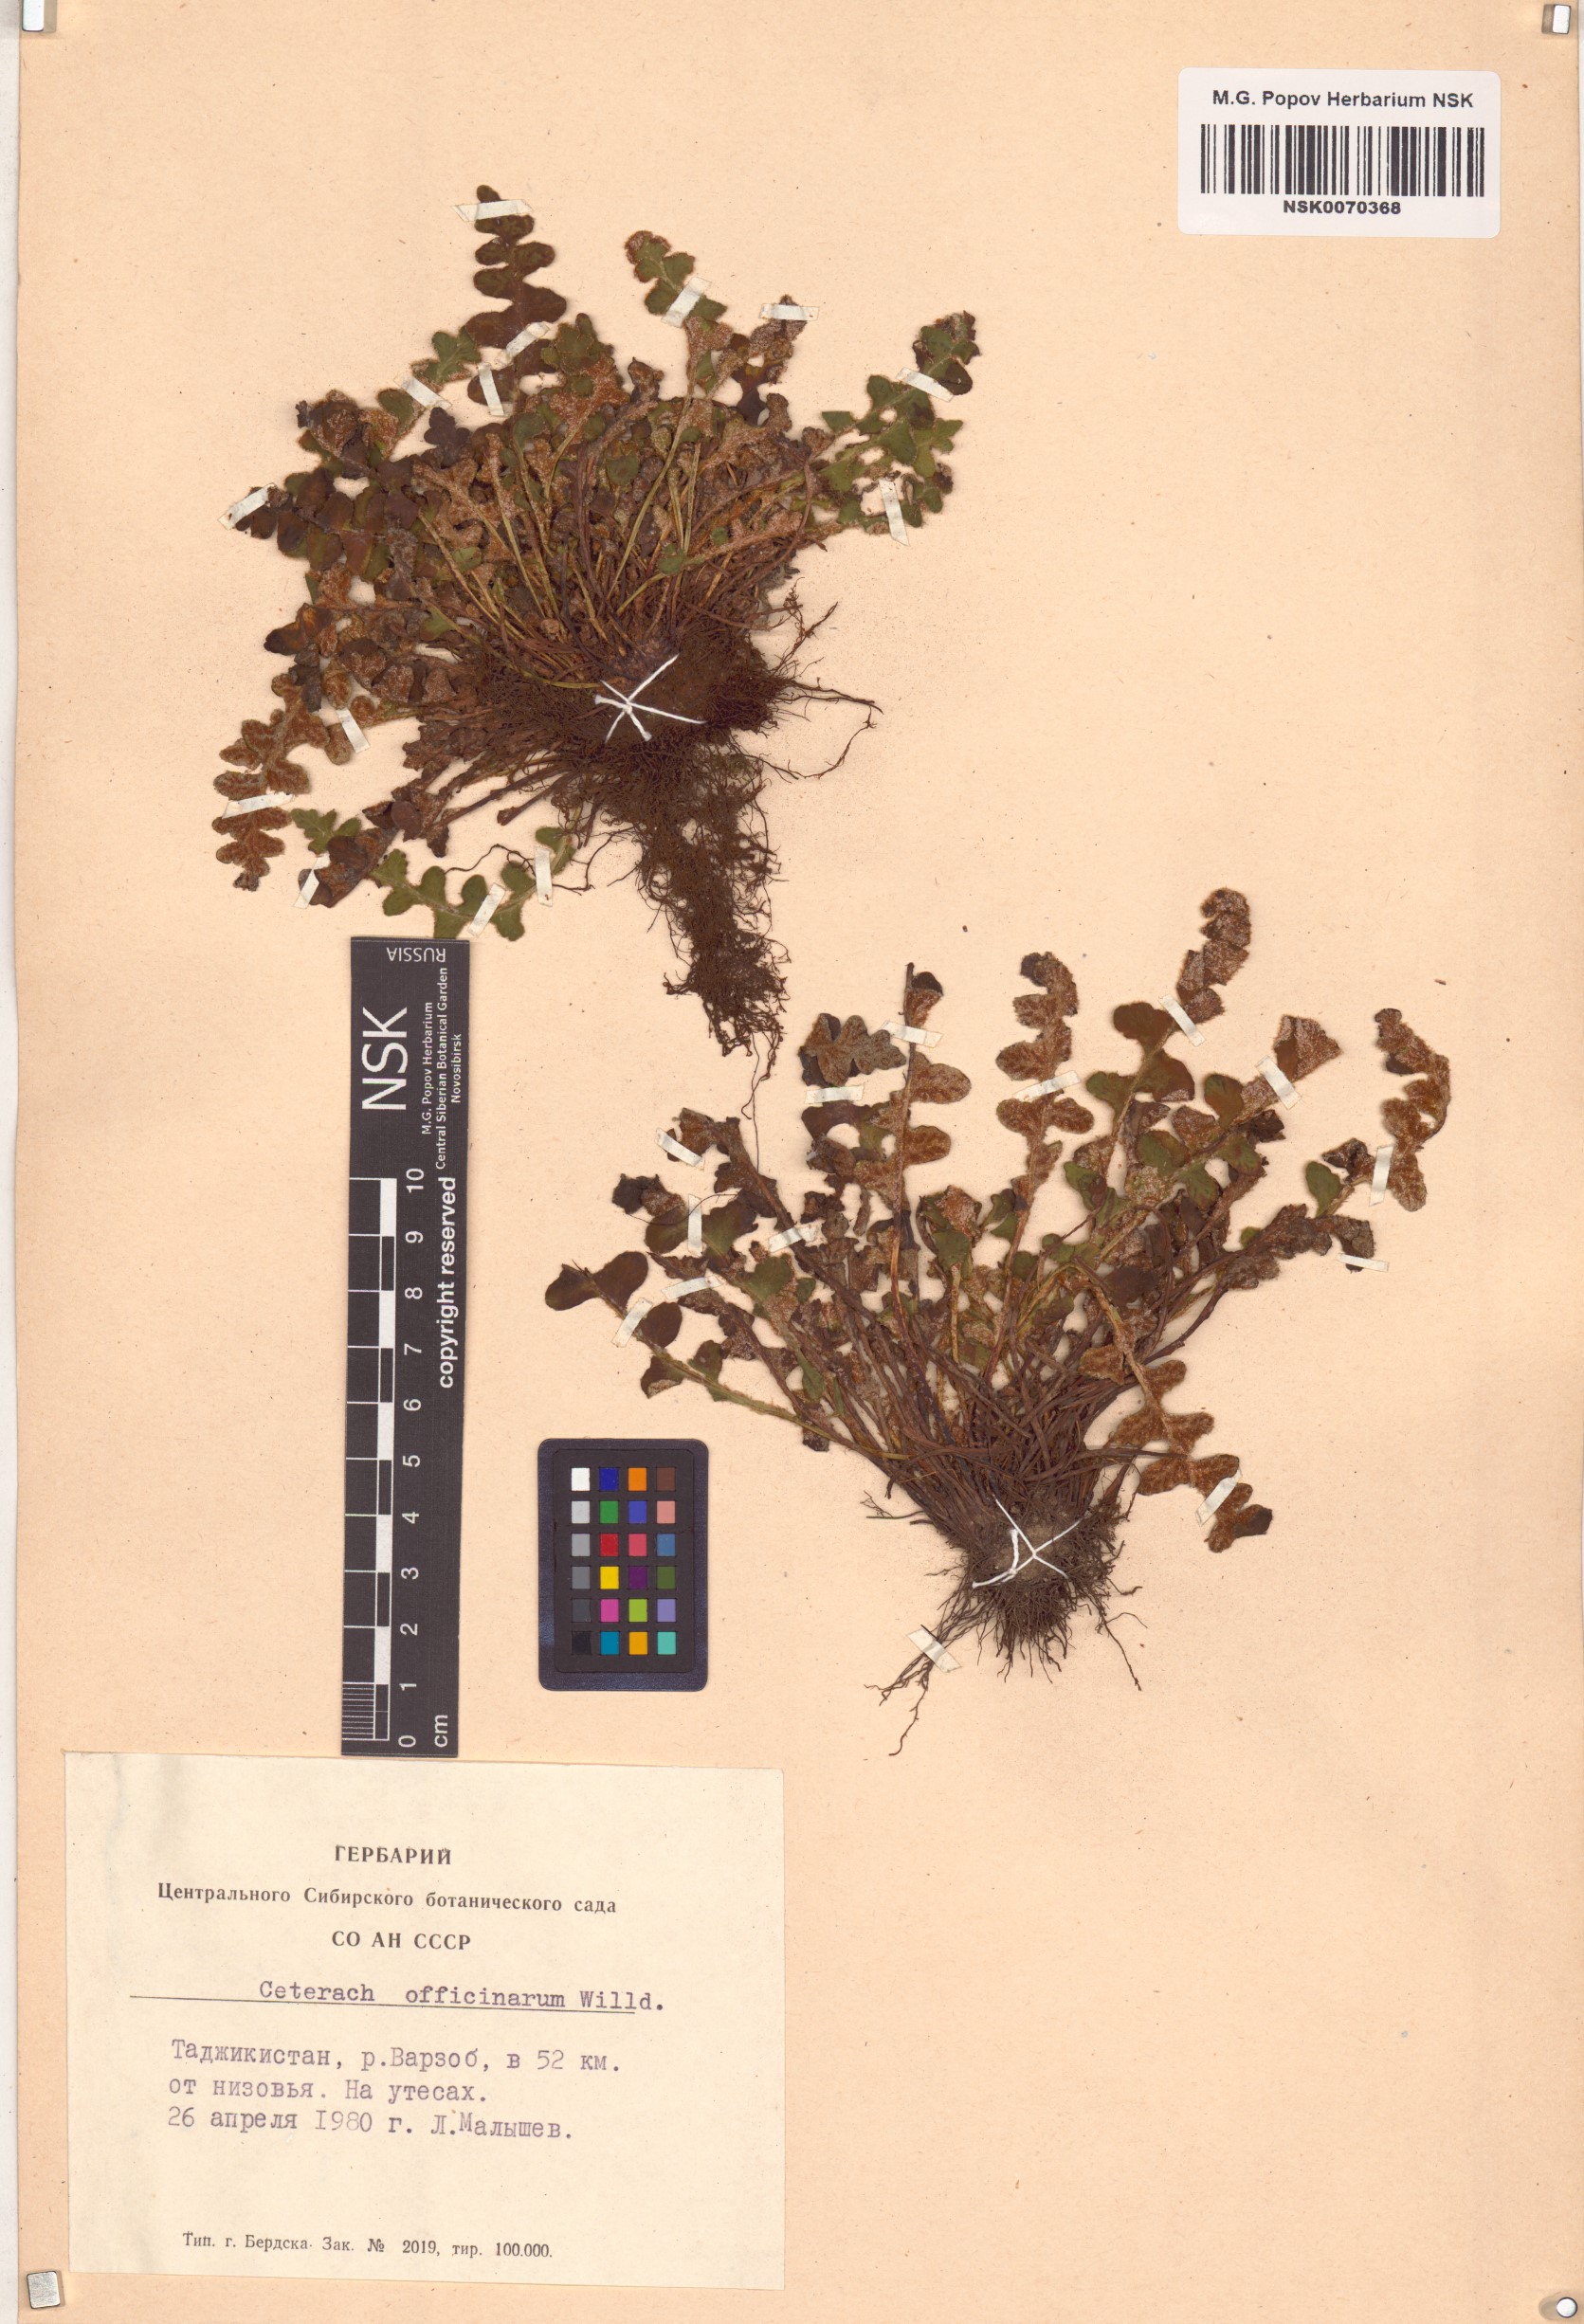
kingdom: Plantae
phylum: Tracheophyta
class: Polypodiopsida
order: Polypodiales
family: Aspleniaceae
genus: Asplenium
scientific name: Asplenium ceterach
